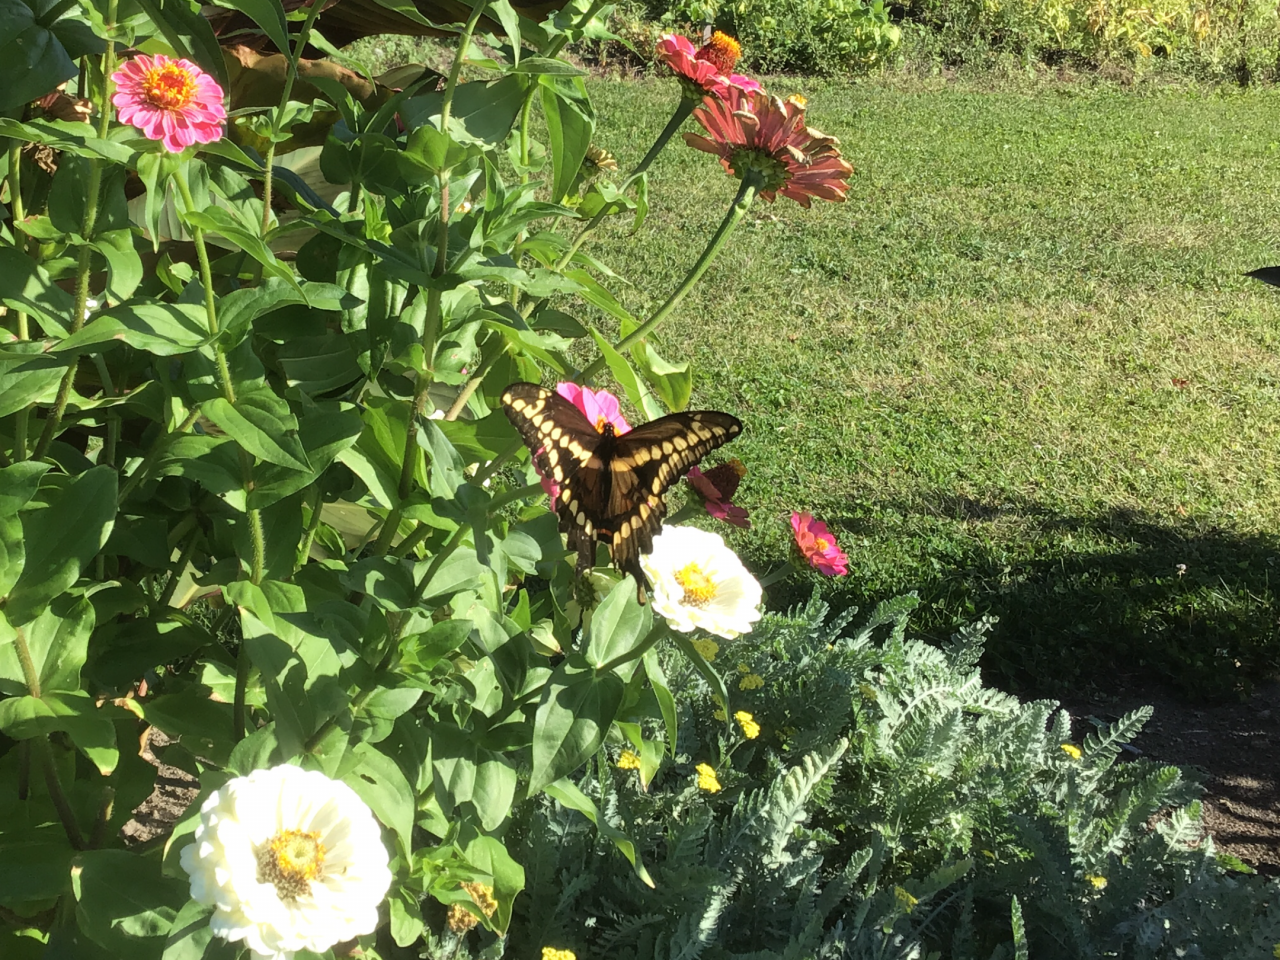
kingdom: Animalia
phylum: Arthropoda
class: Insecta
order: Lepidoptera
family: Papilionidae
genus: Papilio
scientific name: Papilio cresphontes
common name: Eastern Giant Swallowtail
